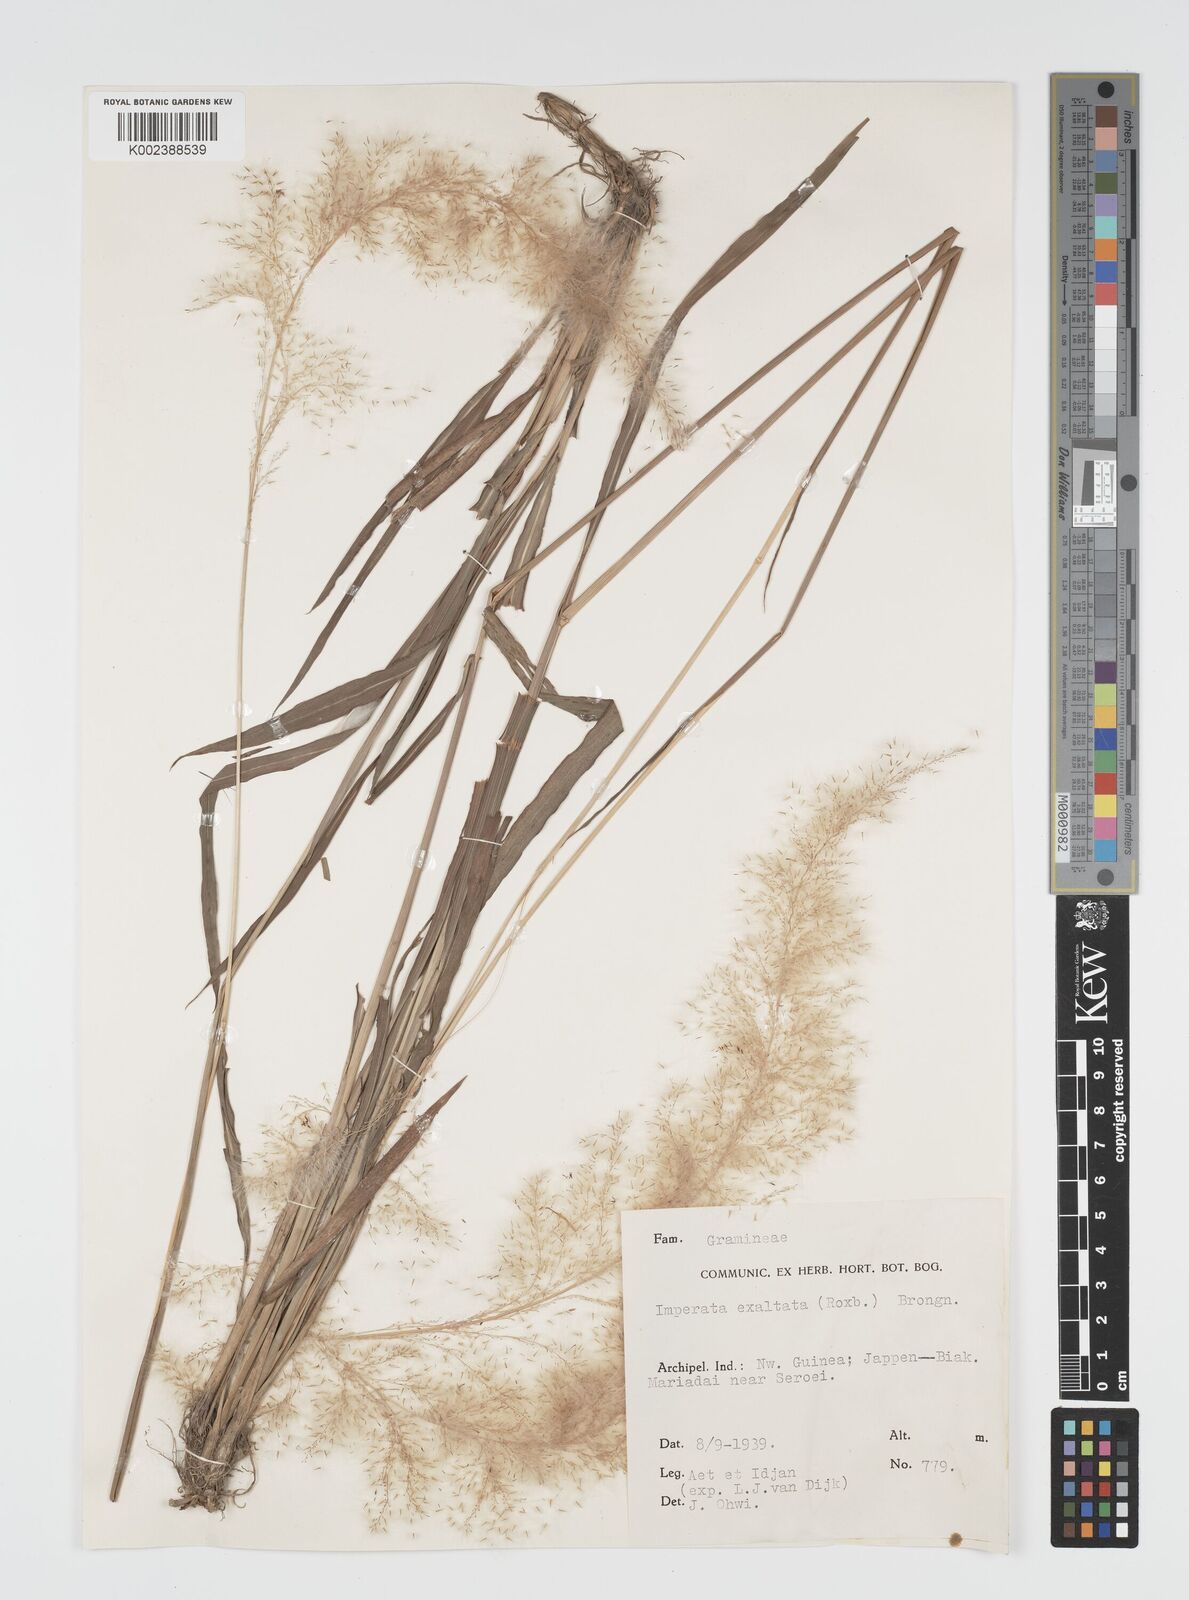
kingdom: Plantae
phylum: Tracheophyta
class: Liliopsida
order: Poales
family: Poaceae
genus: Imperata
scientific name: Imperata conferta
